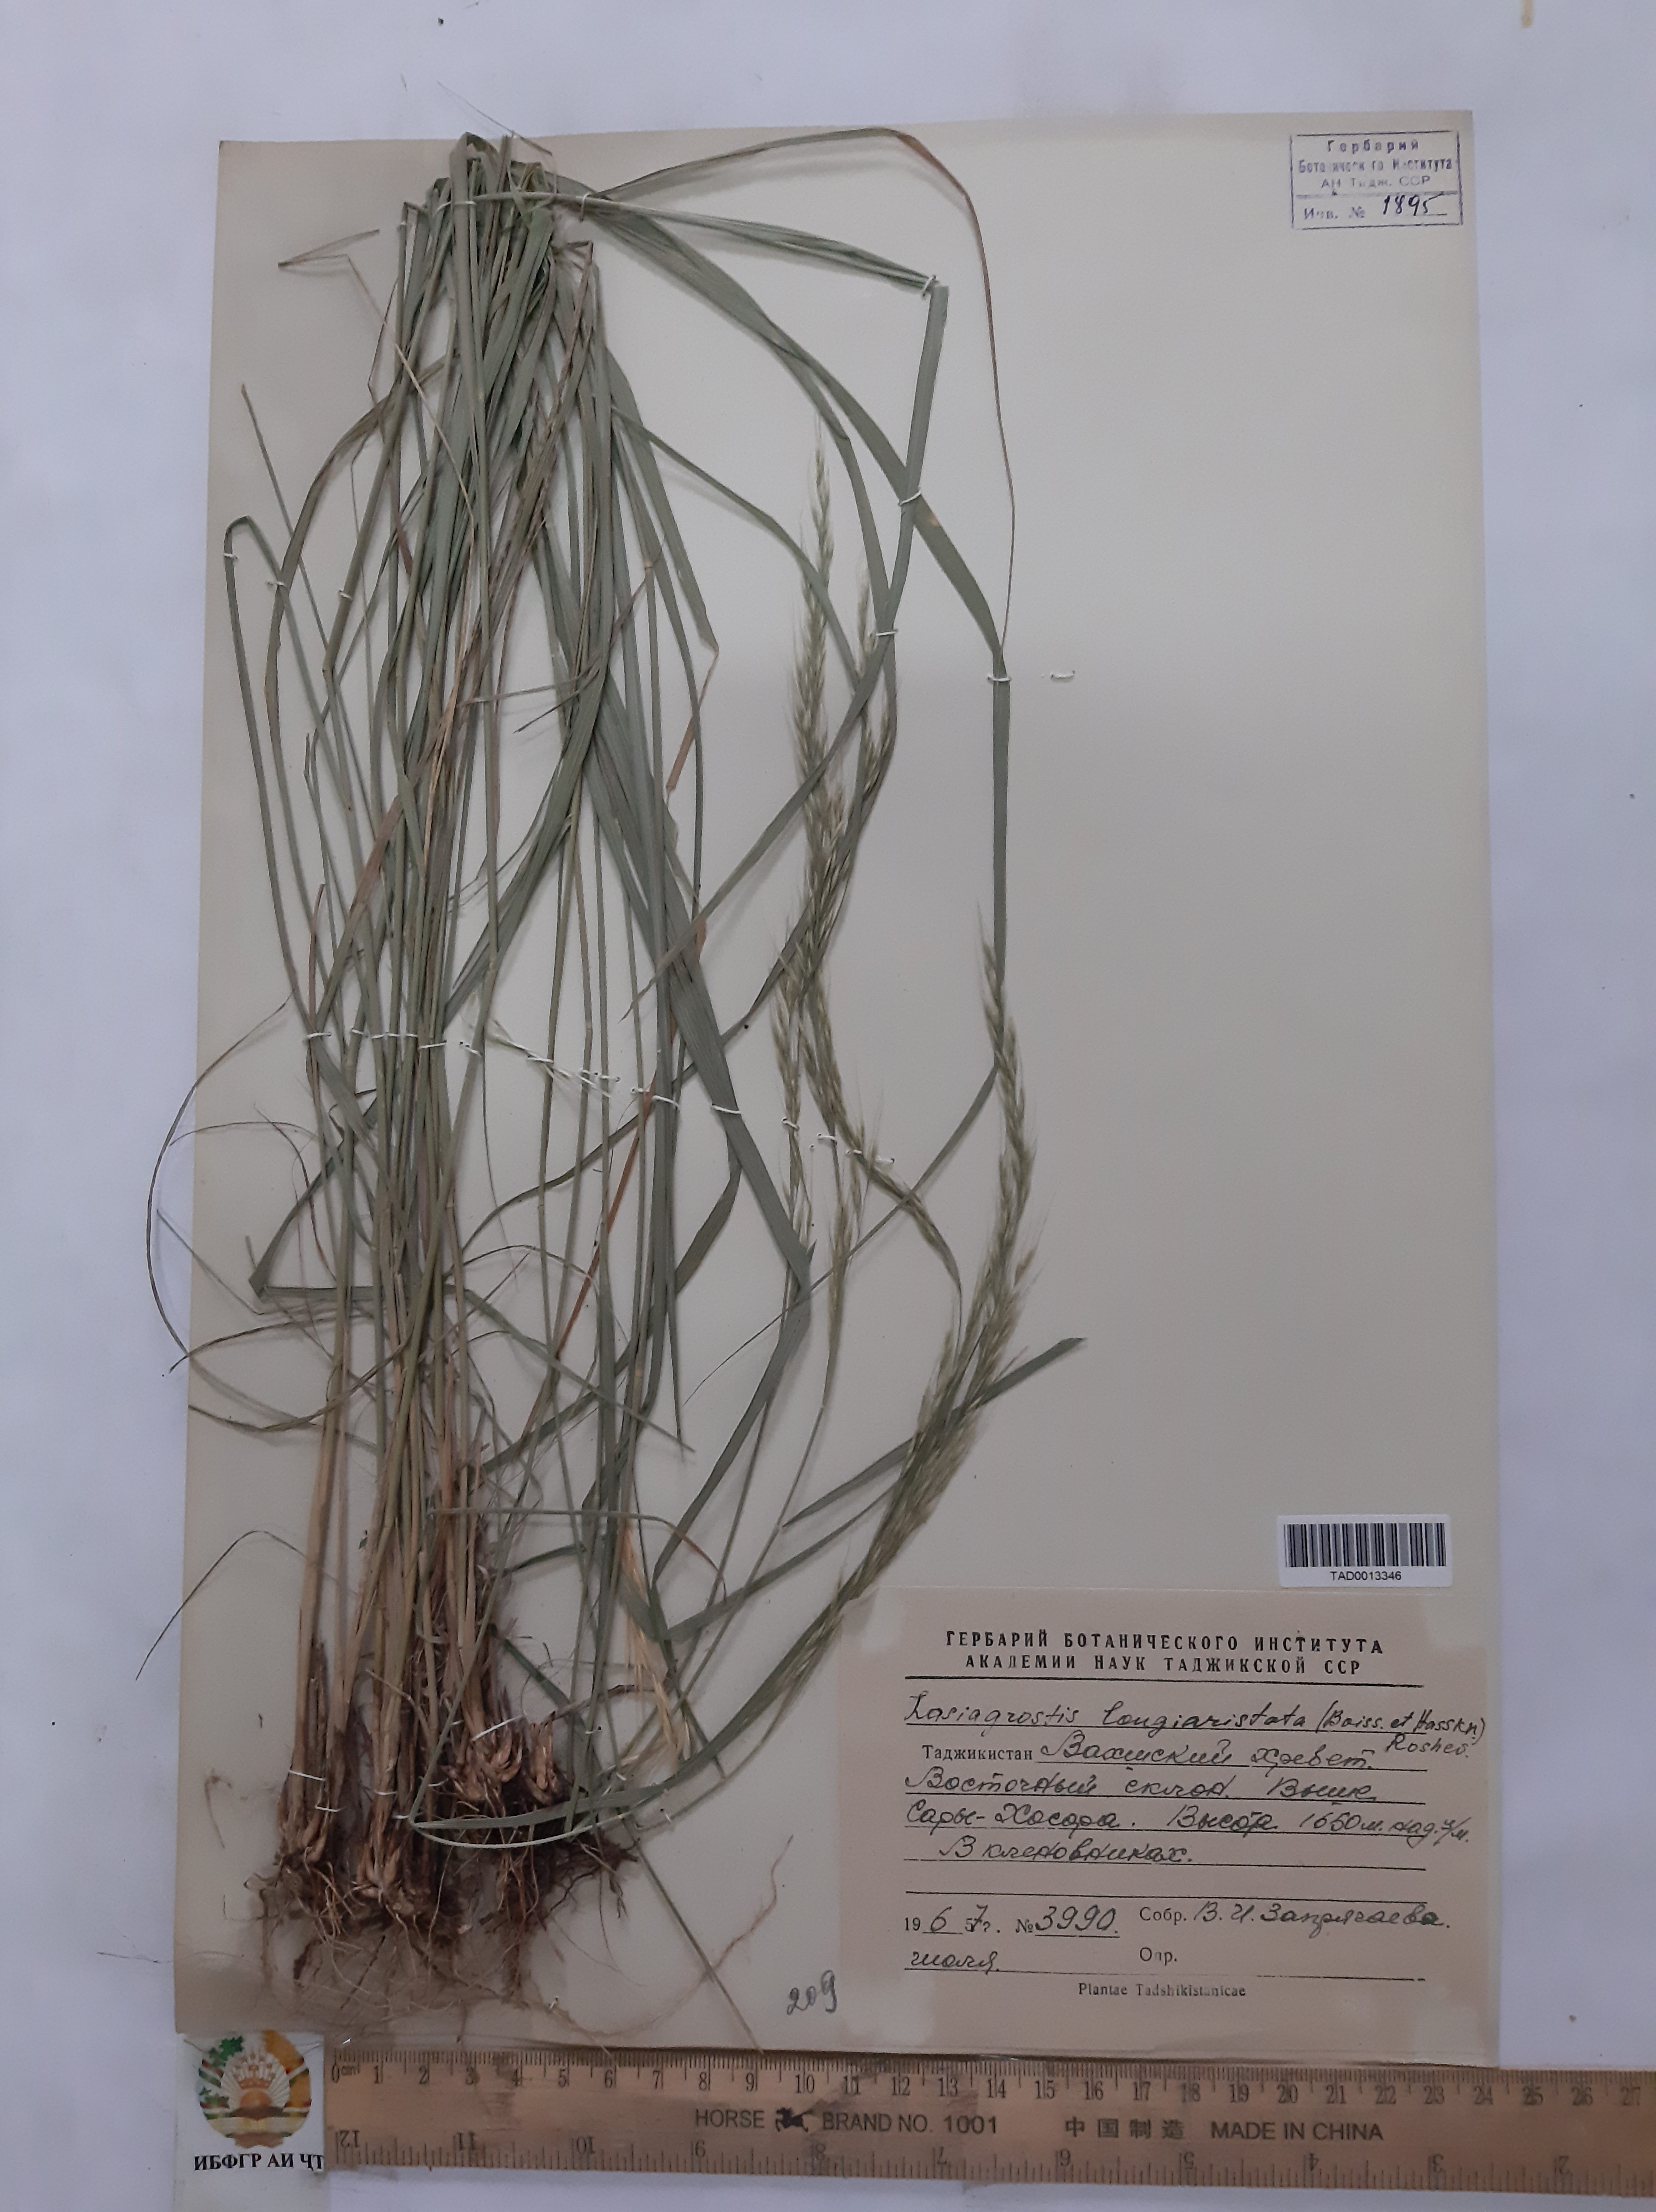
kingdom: Plantae
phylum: Tracheophyta
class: Liliopsida
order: Poales
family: Poaceae
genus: Achnatherum
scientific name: Achnatherum turcomanicum
